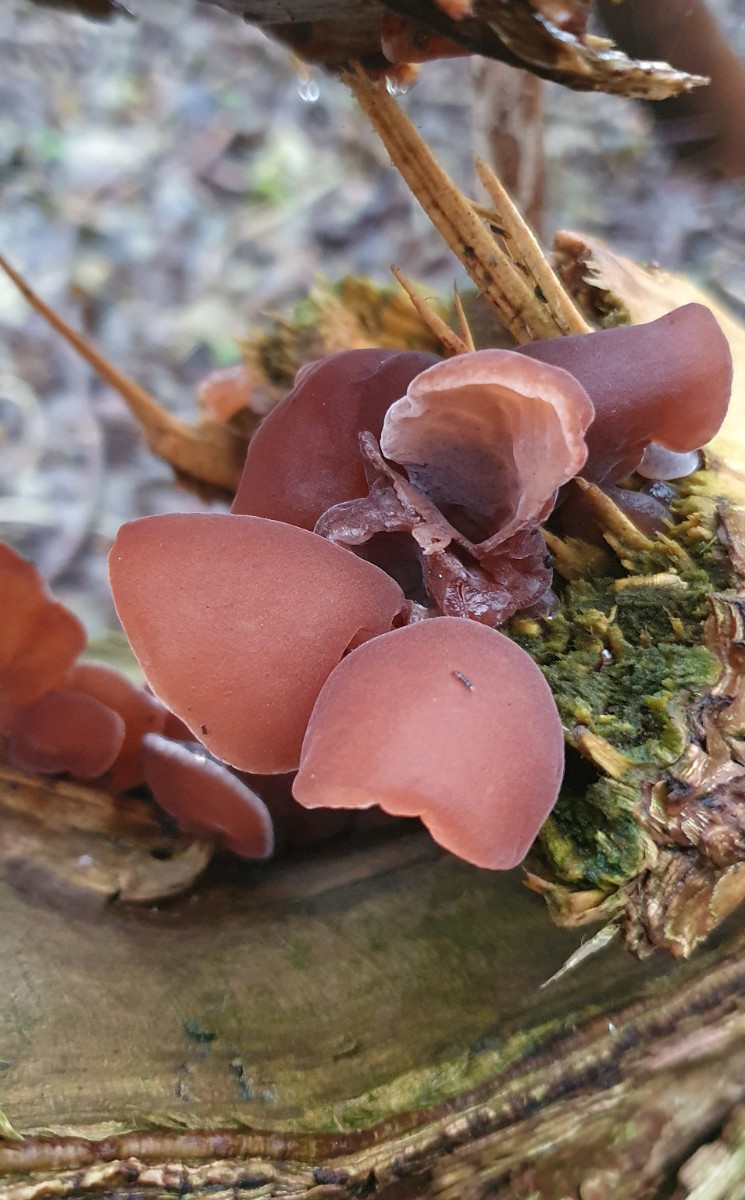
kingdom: Fungi
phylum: Basidiomycota
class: Agaricomycetes
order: Auriculariales
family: Auriculariaceae
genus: Auricularia
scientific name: Auricularia auricula-judae
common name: almindelig judasøre
